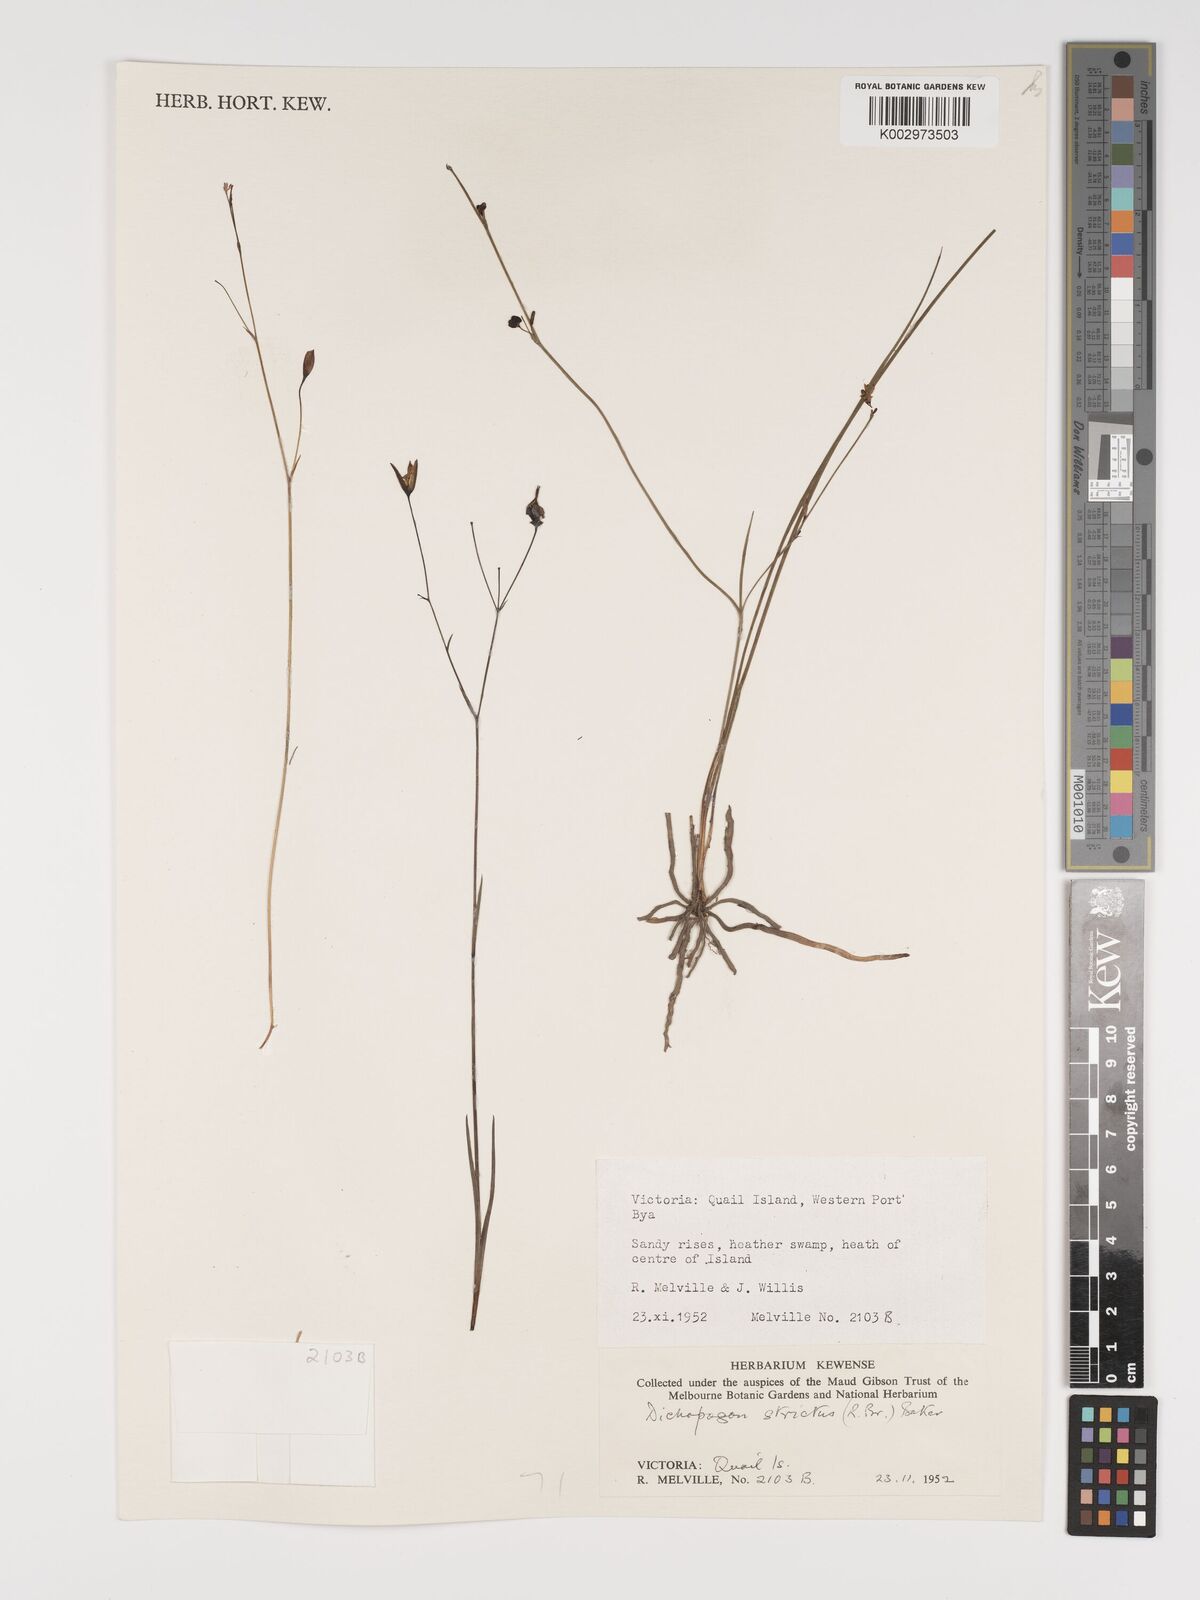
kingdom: Plantae
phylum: Tracheophyta
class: Liliopsida
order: Asparagales
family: Asparagaceae
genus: Arthropodium
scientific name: Arthropodium strictum
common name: Chocolate-lily
